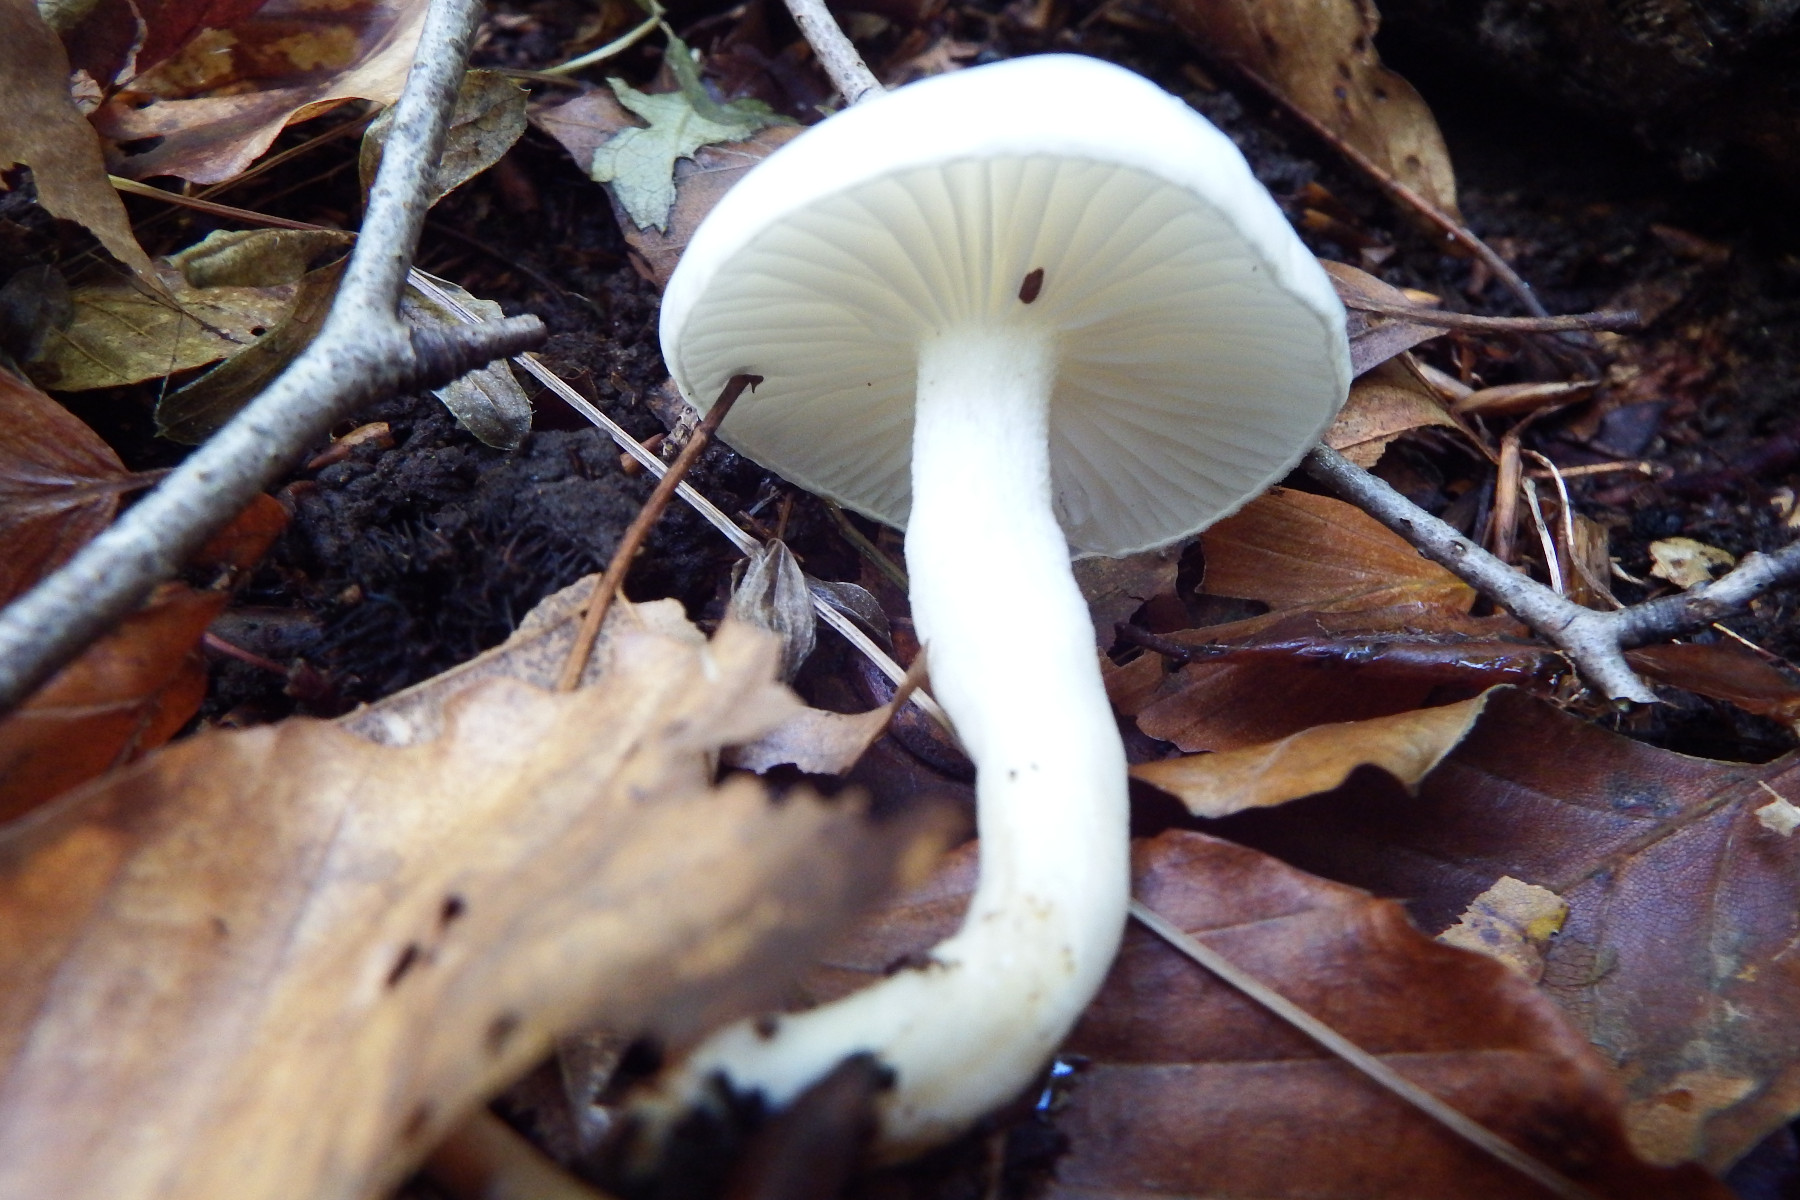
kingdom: Fungi
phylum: Basidiomycota
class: Agaricomycetes
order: Agaricales
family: Hygrophoraceae
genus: Hygrophorus
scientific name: Hygrophorus
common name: sneglehat
